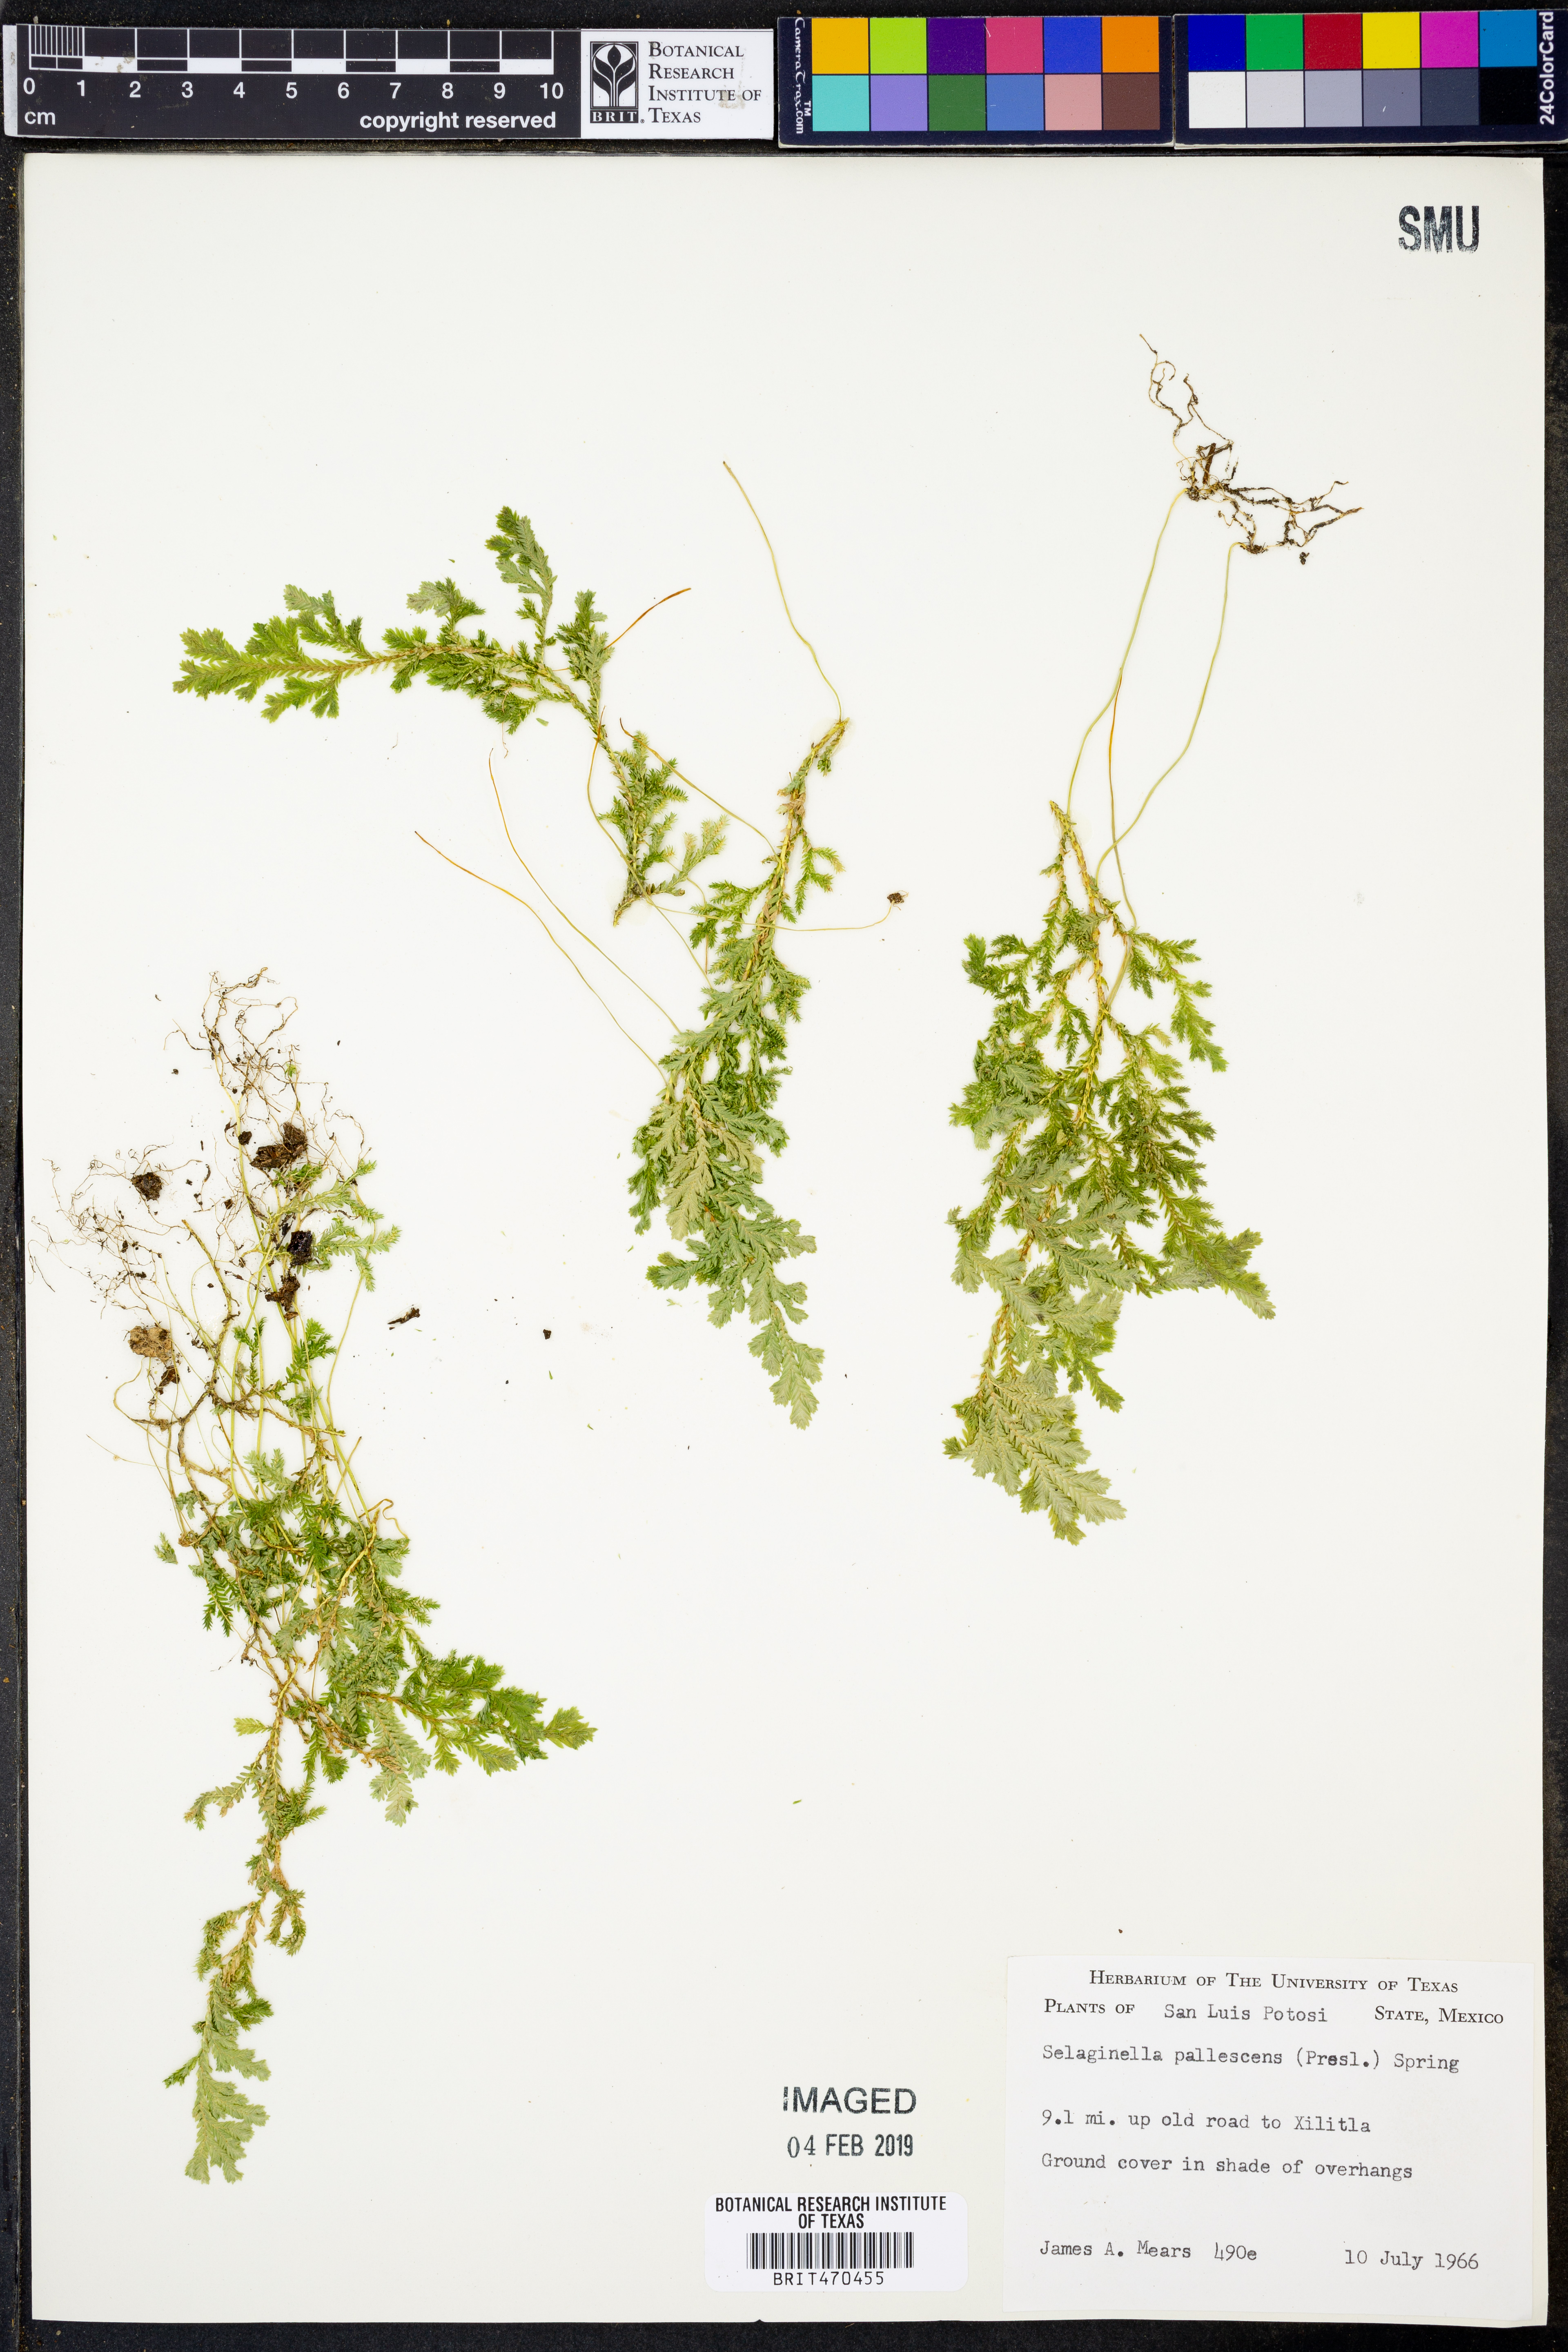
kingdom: Plantae
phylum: Tracheophyta
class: Lycopodiopsida
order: Selaginellales
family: Selaginellaceae
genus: Selaginella
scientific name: Selaginella pallescens
